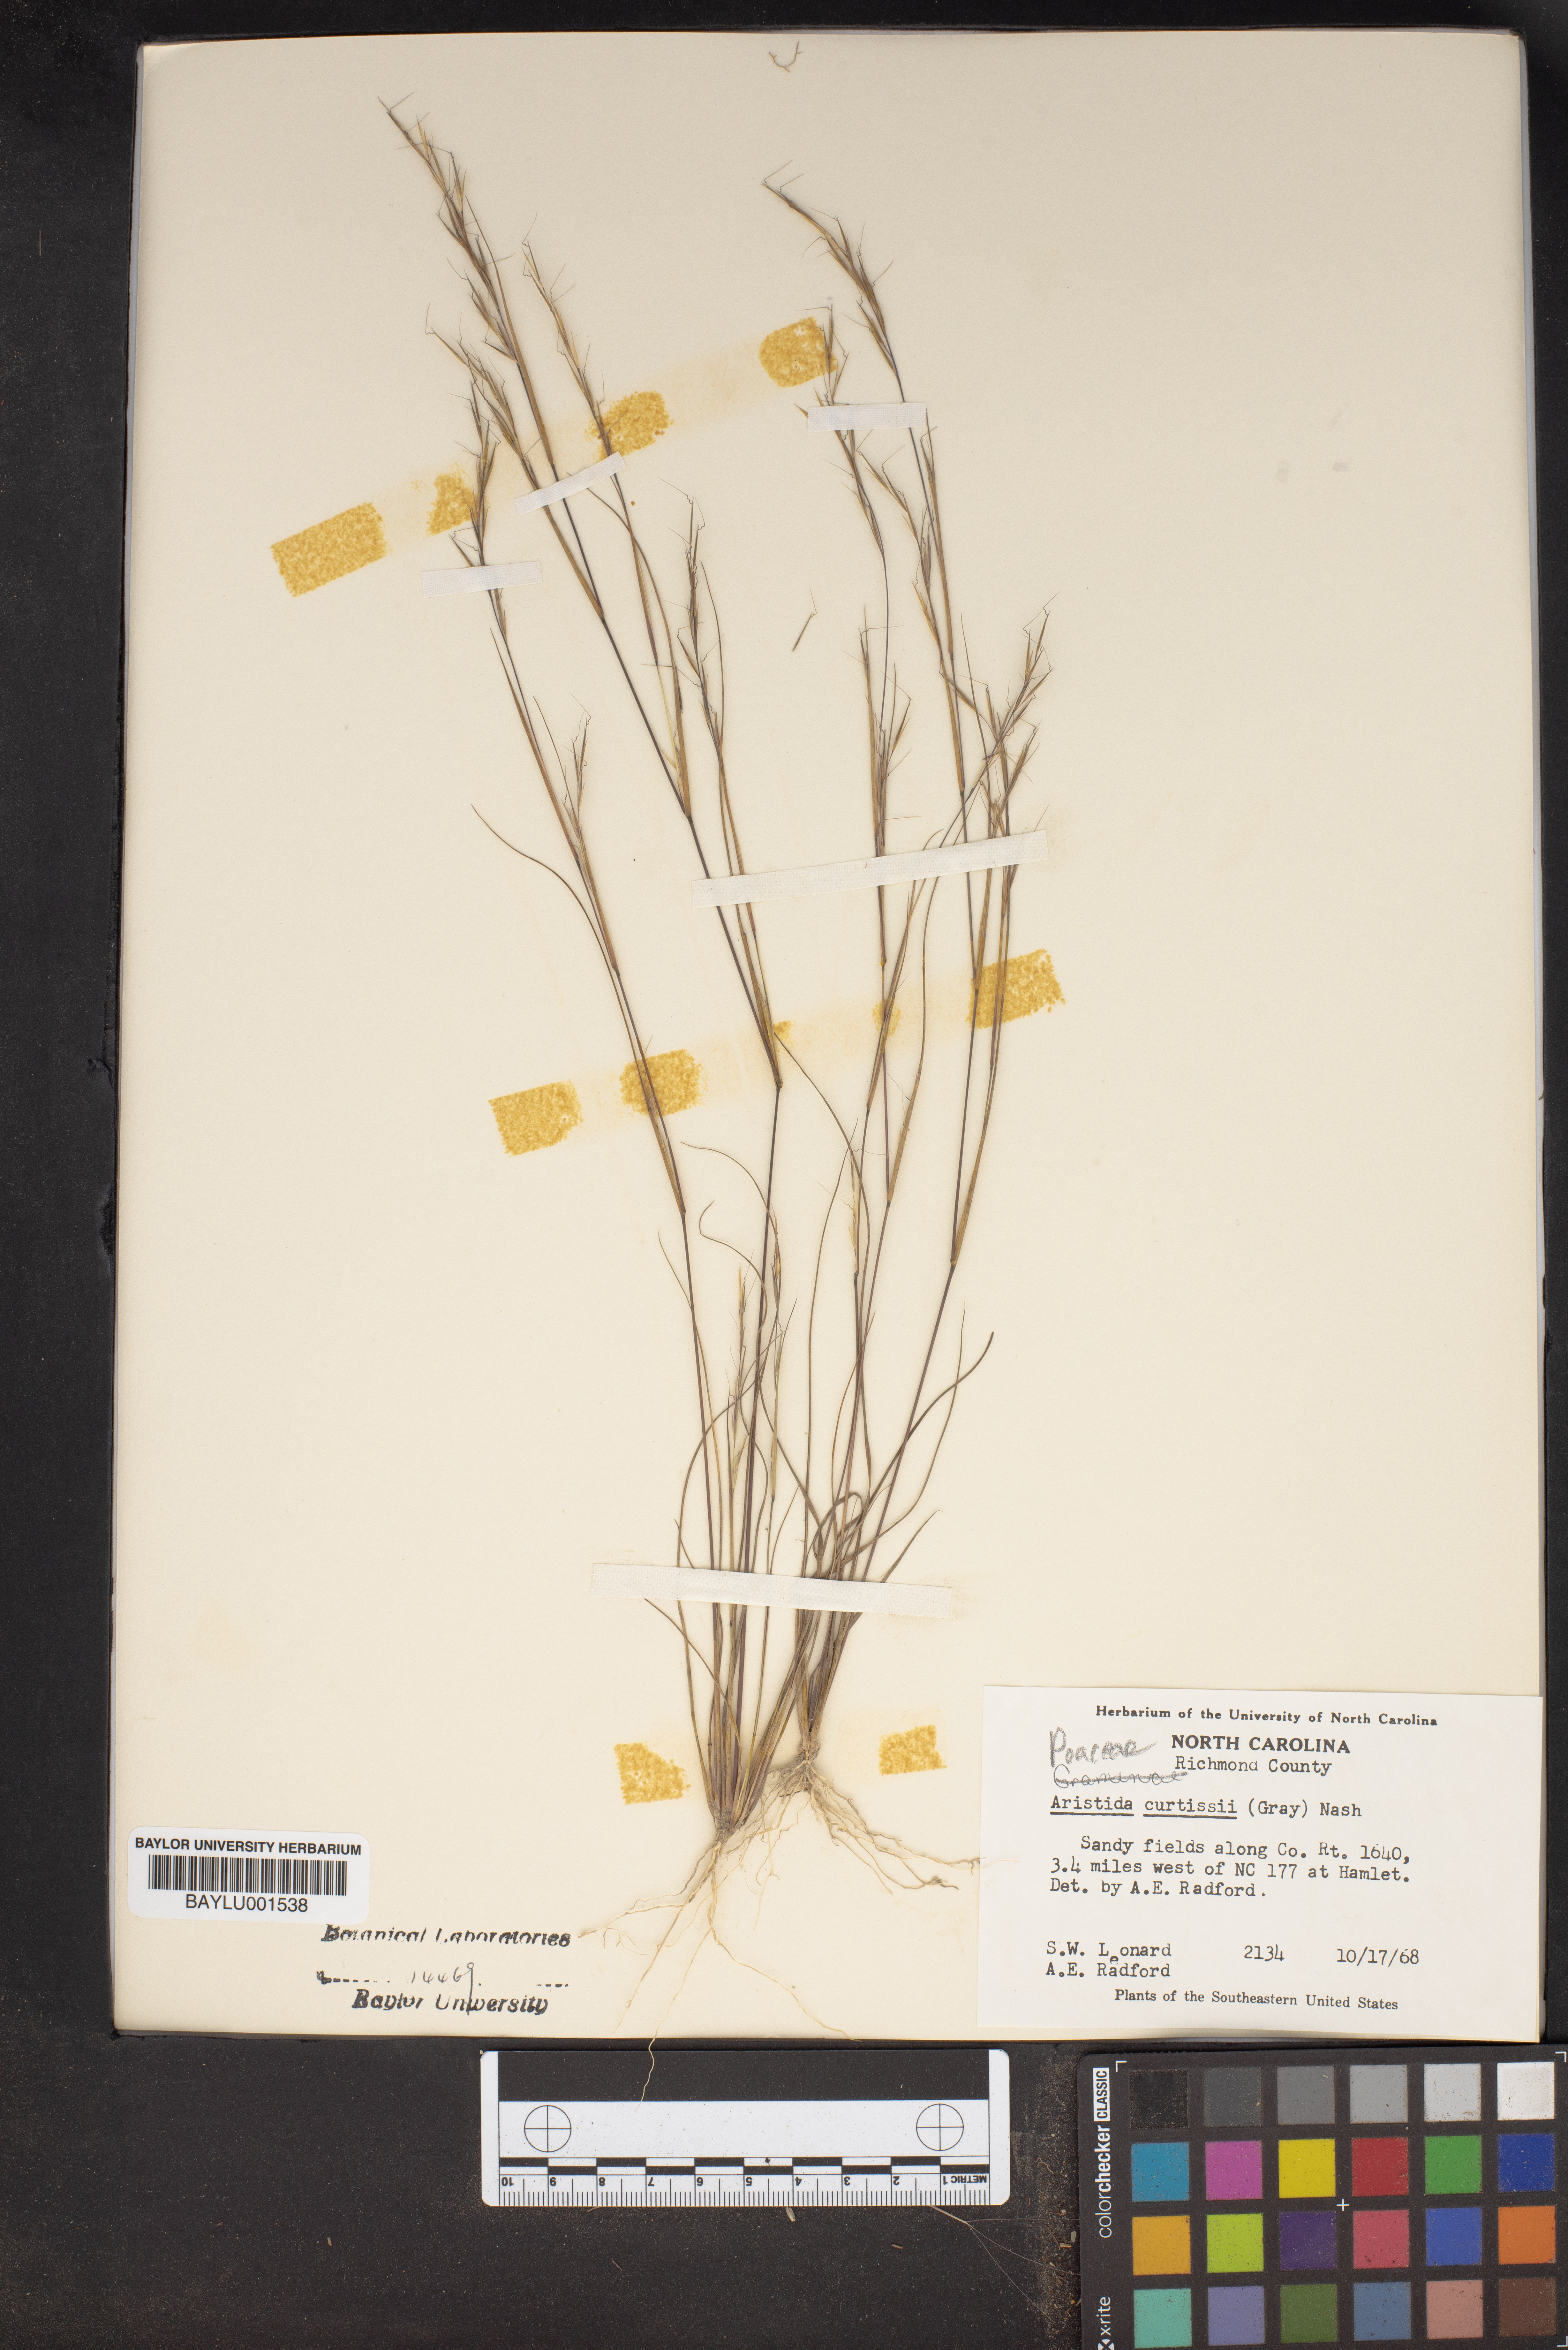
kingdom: Plantae
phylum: Tracheophyta
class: Liliopsida
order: Poales
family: Poaceae
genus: Aristida
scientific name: Aristida curtissii
